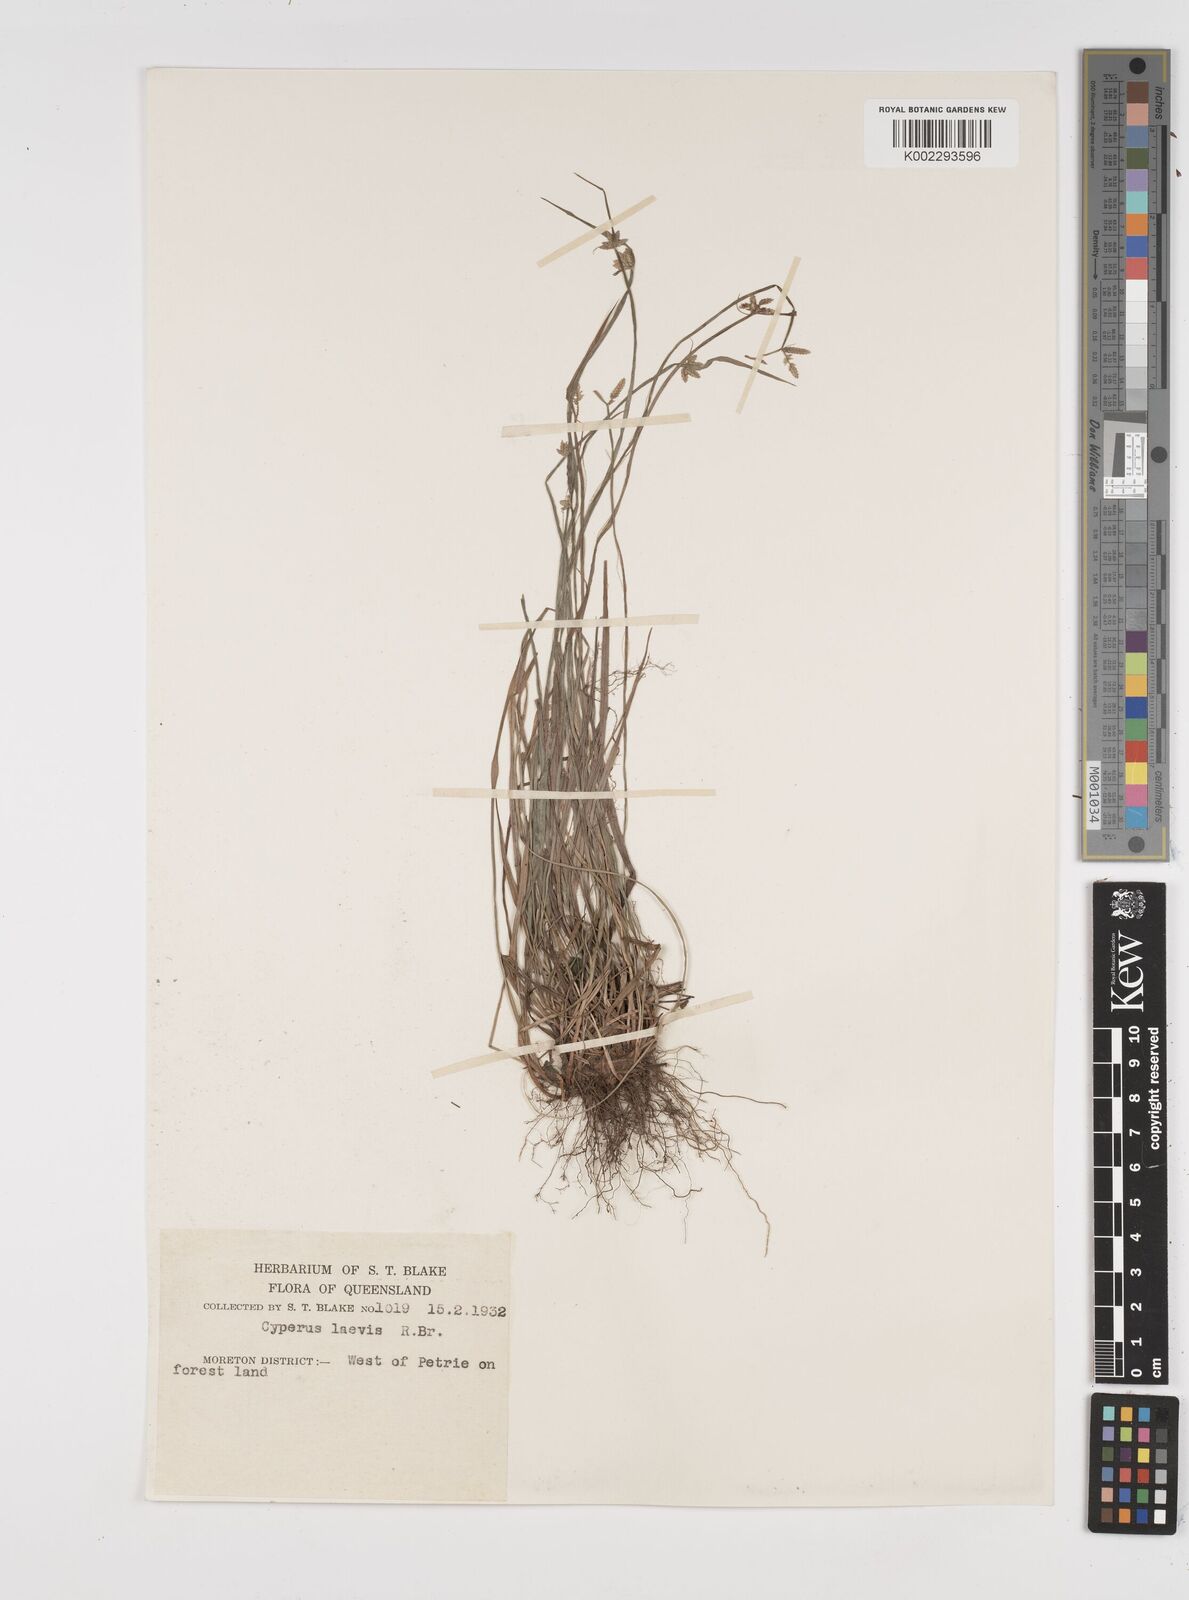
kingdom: Plantae
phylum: Tracheophyta
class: Liliopsida
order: Poales
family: Cyperaceae
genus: Cyperus
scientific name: Cyperus laevis
